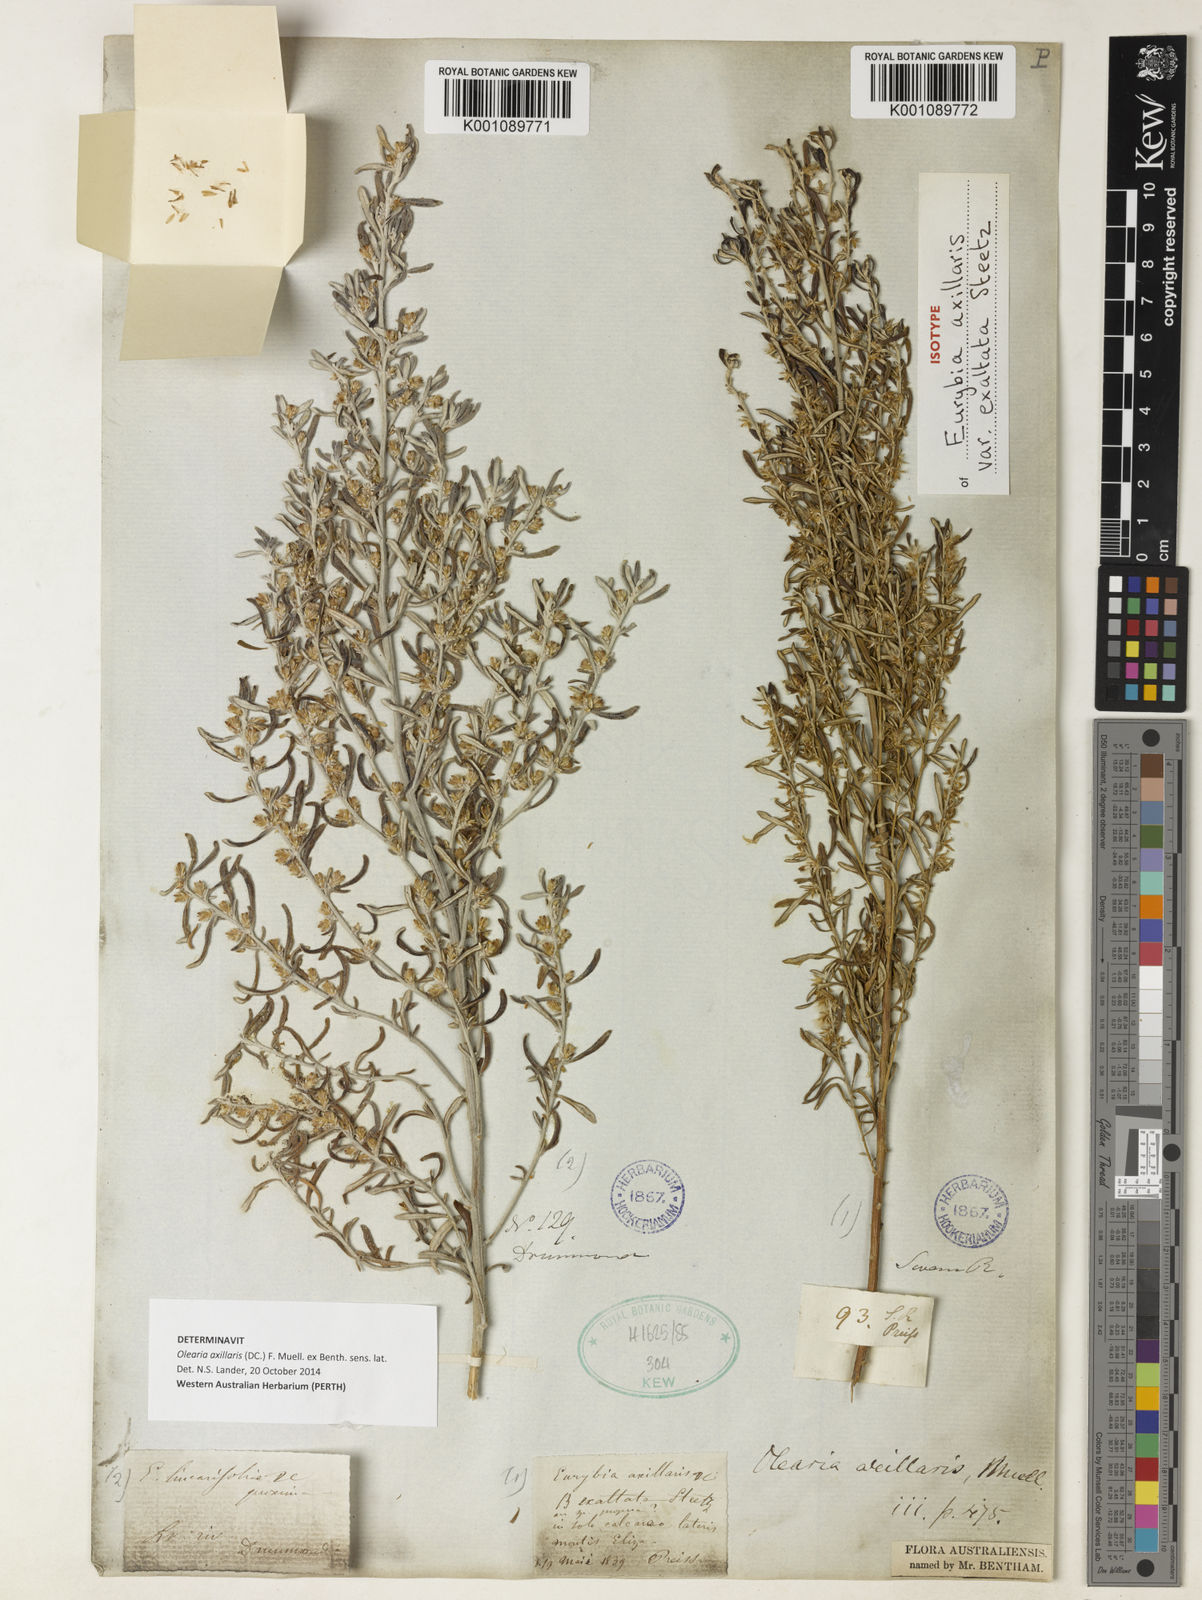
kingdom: Plantae
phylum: Tracheophyta
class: Magnoliopsida
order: Asterales
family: Asteraceae
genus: Olearia
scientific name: Olearia
